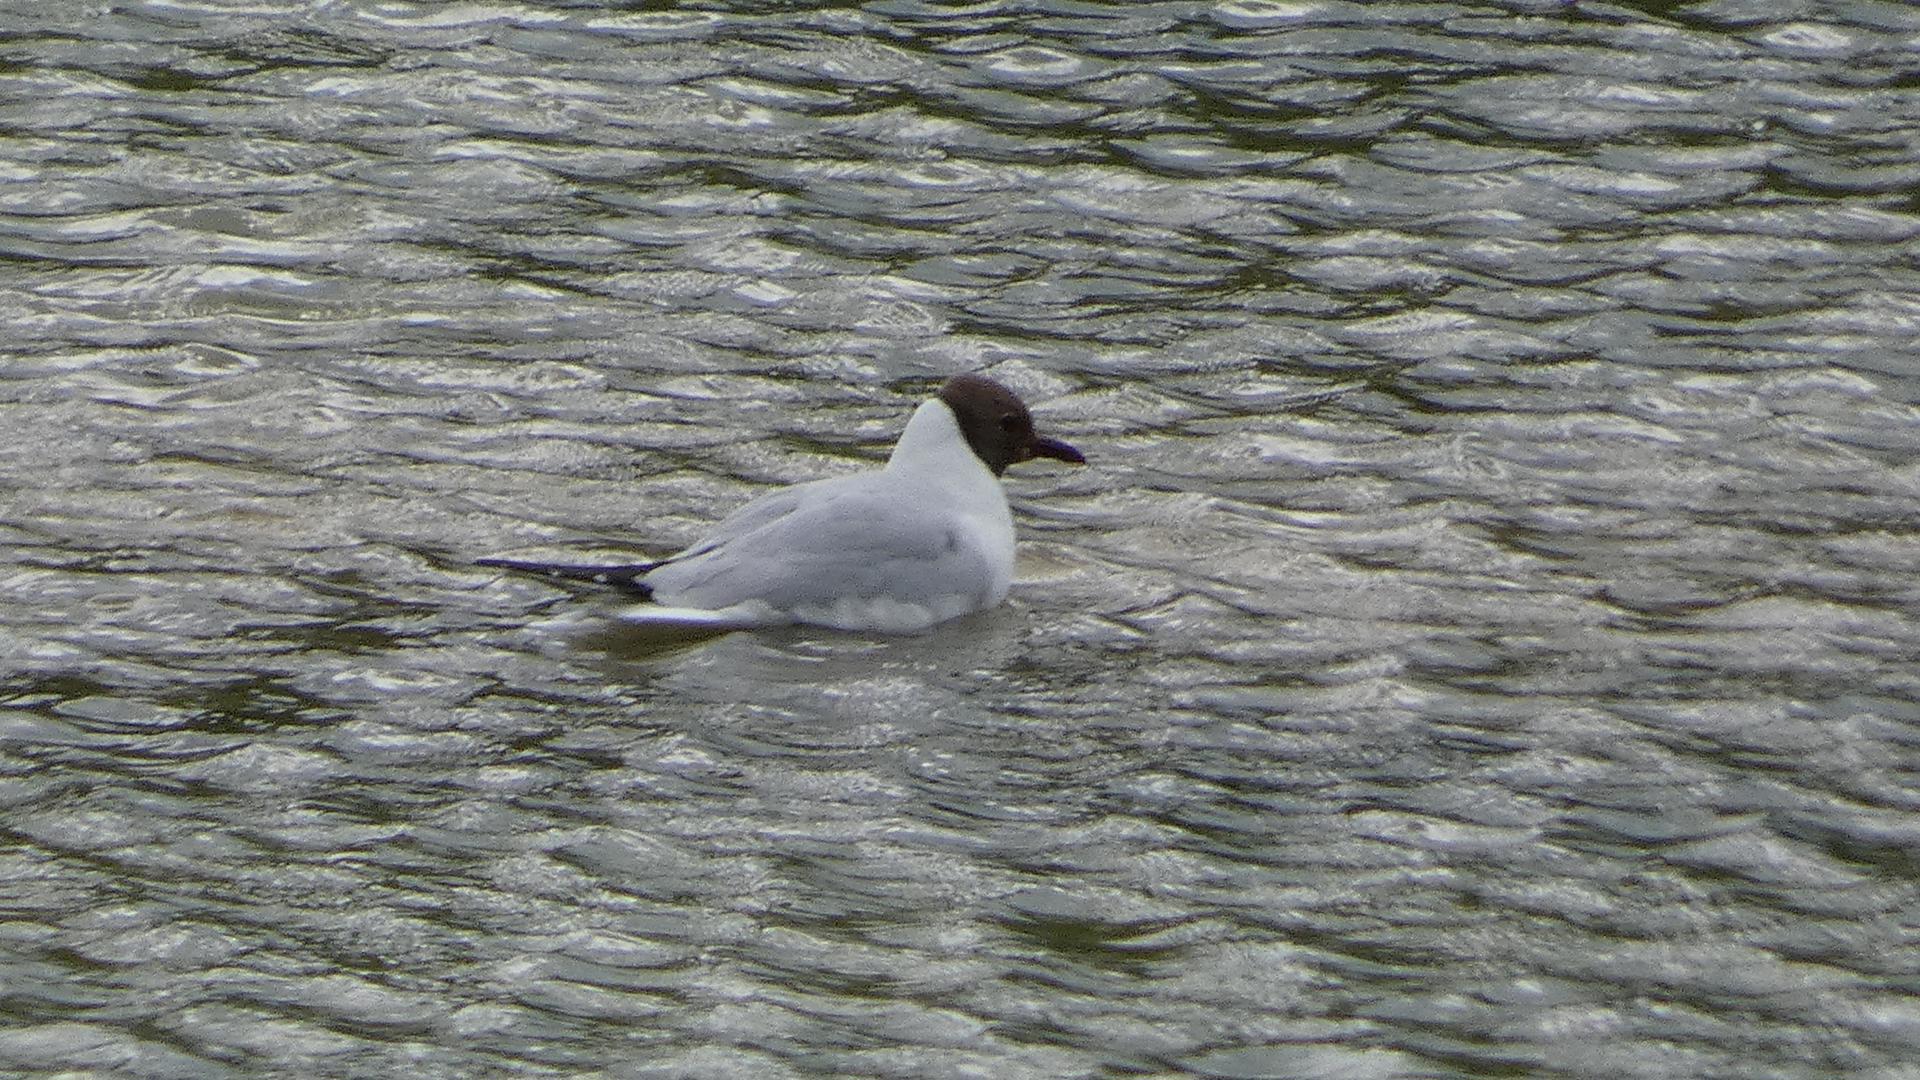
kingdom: Animalia
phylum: Chordata
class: Aves
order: Charadriiformes
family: Laridae
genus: Chroicocephalus
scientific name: Chroicocephalus ridibundus
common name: Hættemåge
